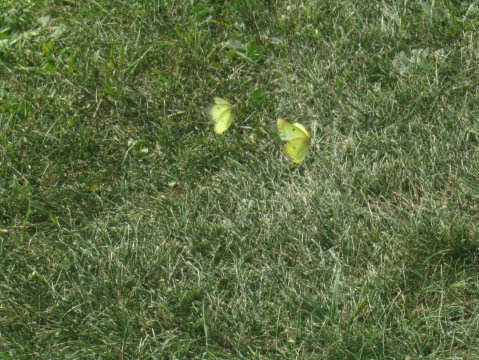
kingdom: Animalia
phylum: Arthropoda
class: Insecta
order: Lepidoptera
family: Pieridae
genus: Colias
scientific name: Colias philodice
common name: Clouded Sulphur
